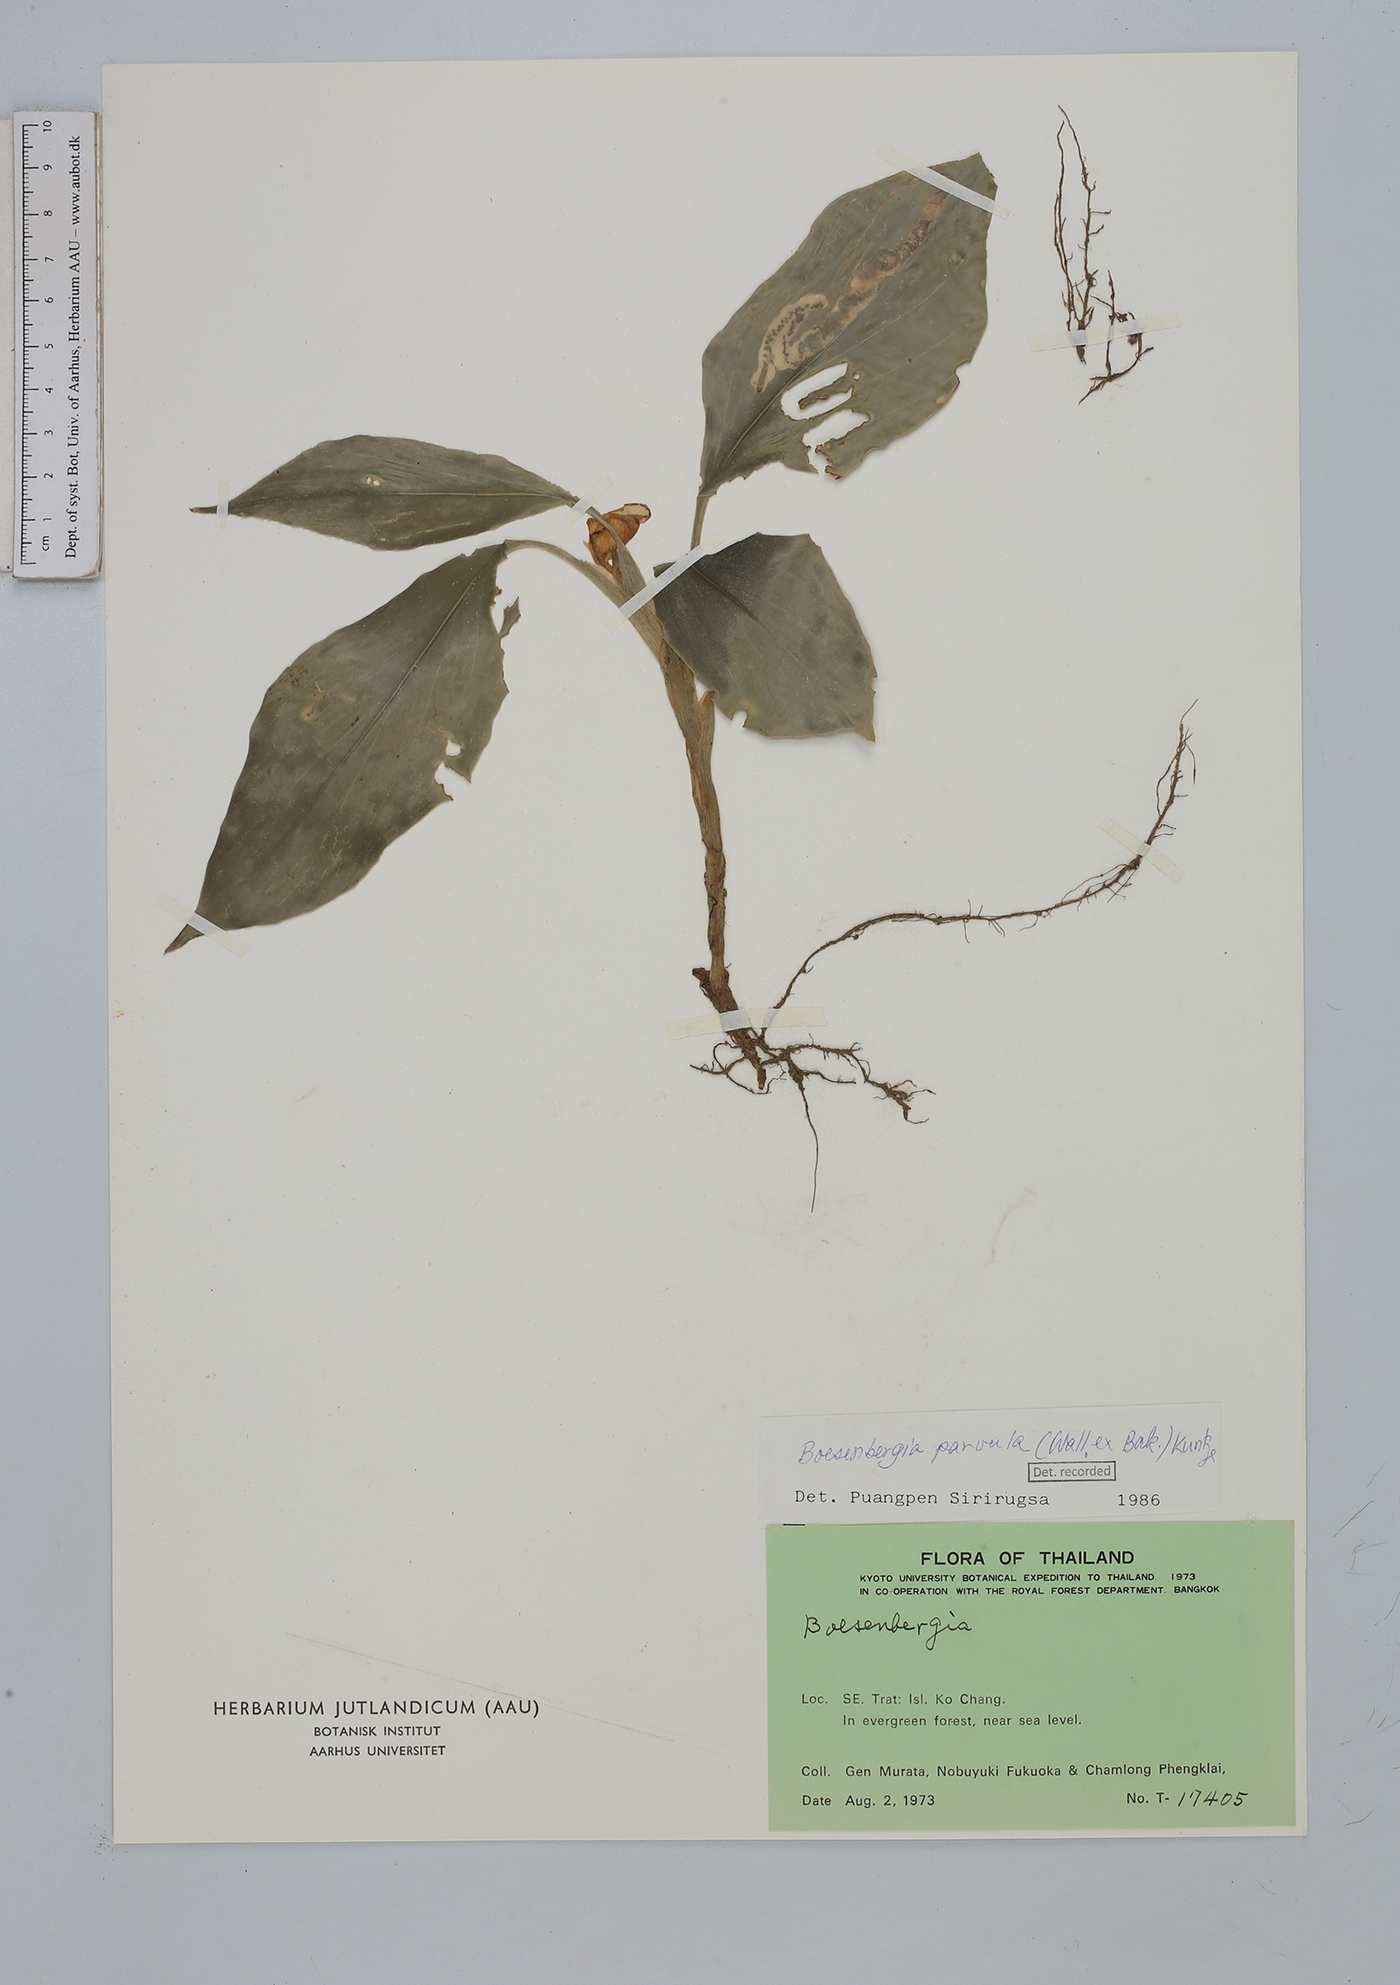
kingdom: Plantae
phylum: Tracheophyta
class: Liliopsida
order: Zingiberales
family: Zingiberaceae
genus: Boesenbergia
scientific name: Boesenbergia parvula
